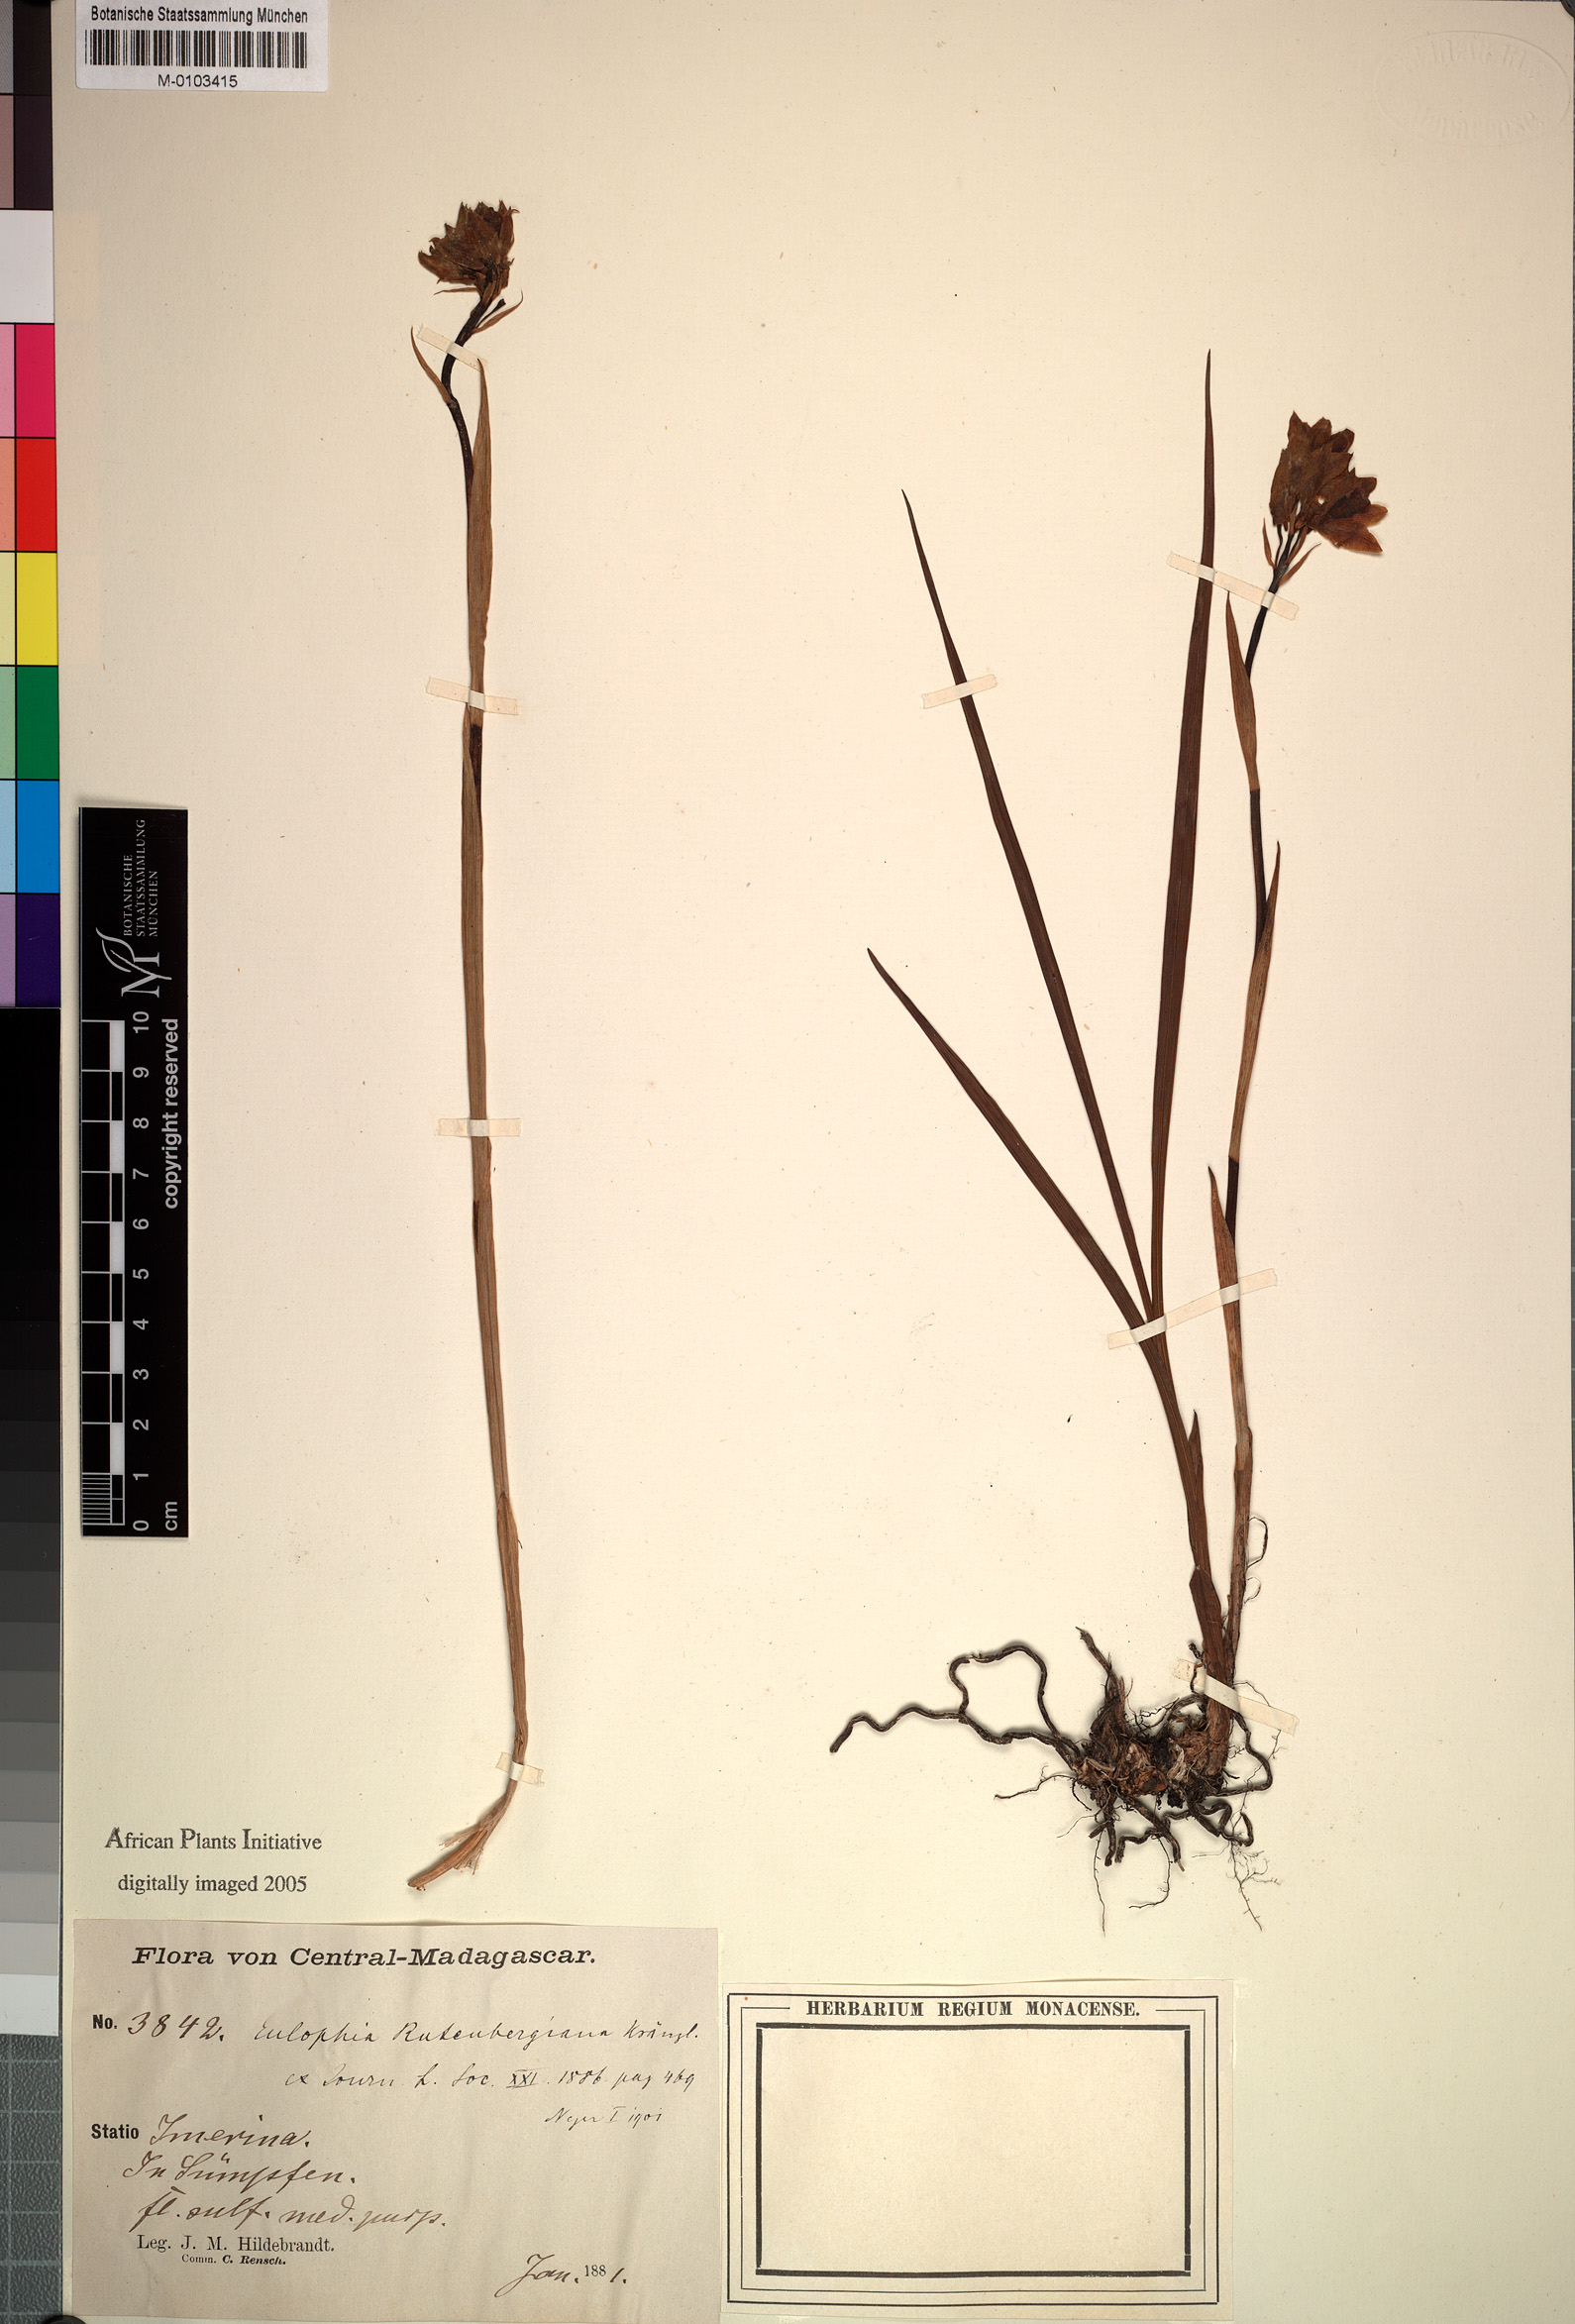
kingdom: Plantae
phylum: Tracheophyta
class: Liliopsida
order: Asparagales
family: Orchidaceae
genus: Eulophia
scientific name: Eulophia rutenbergiana
